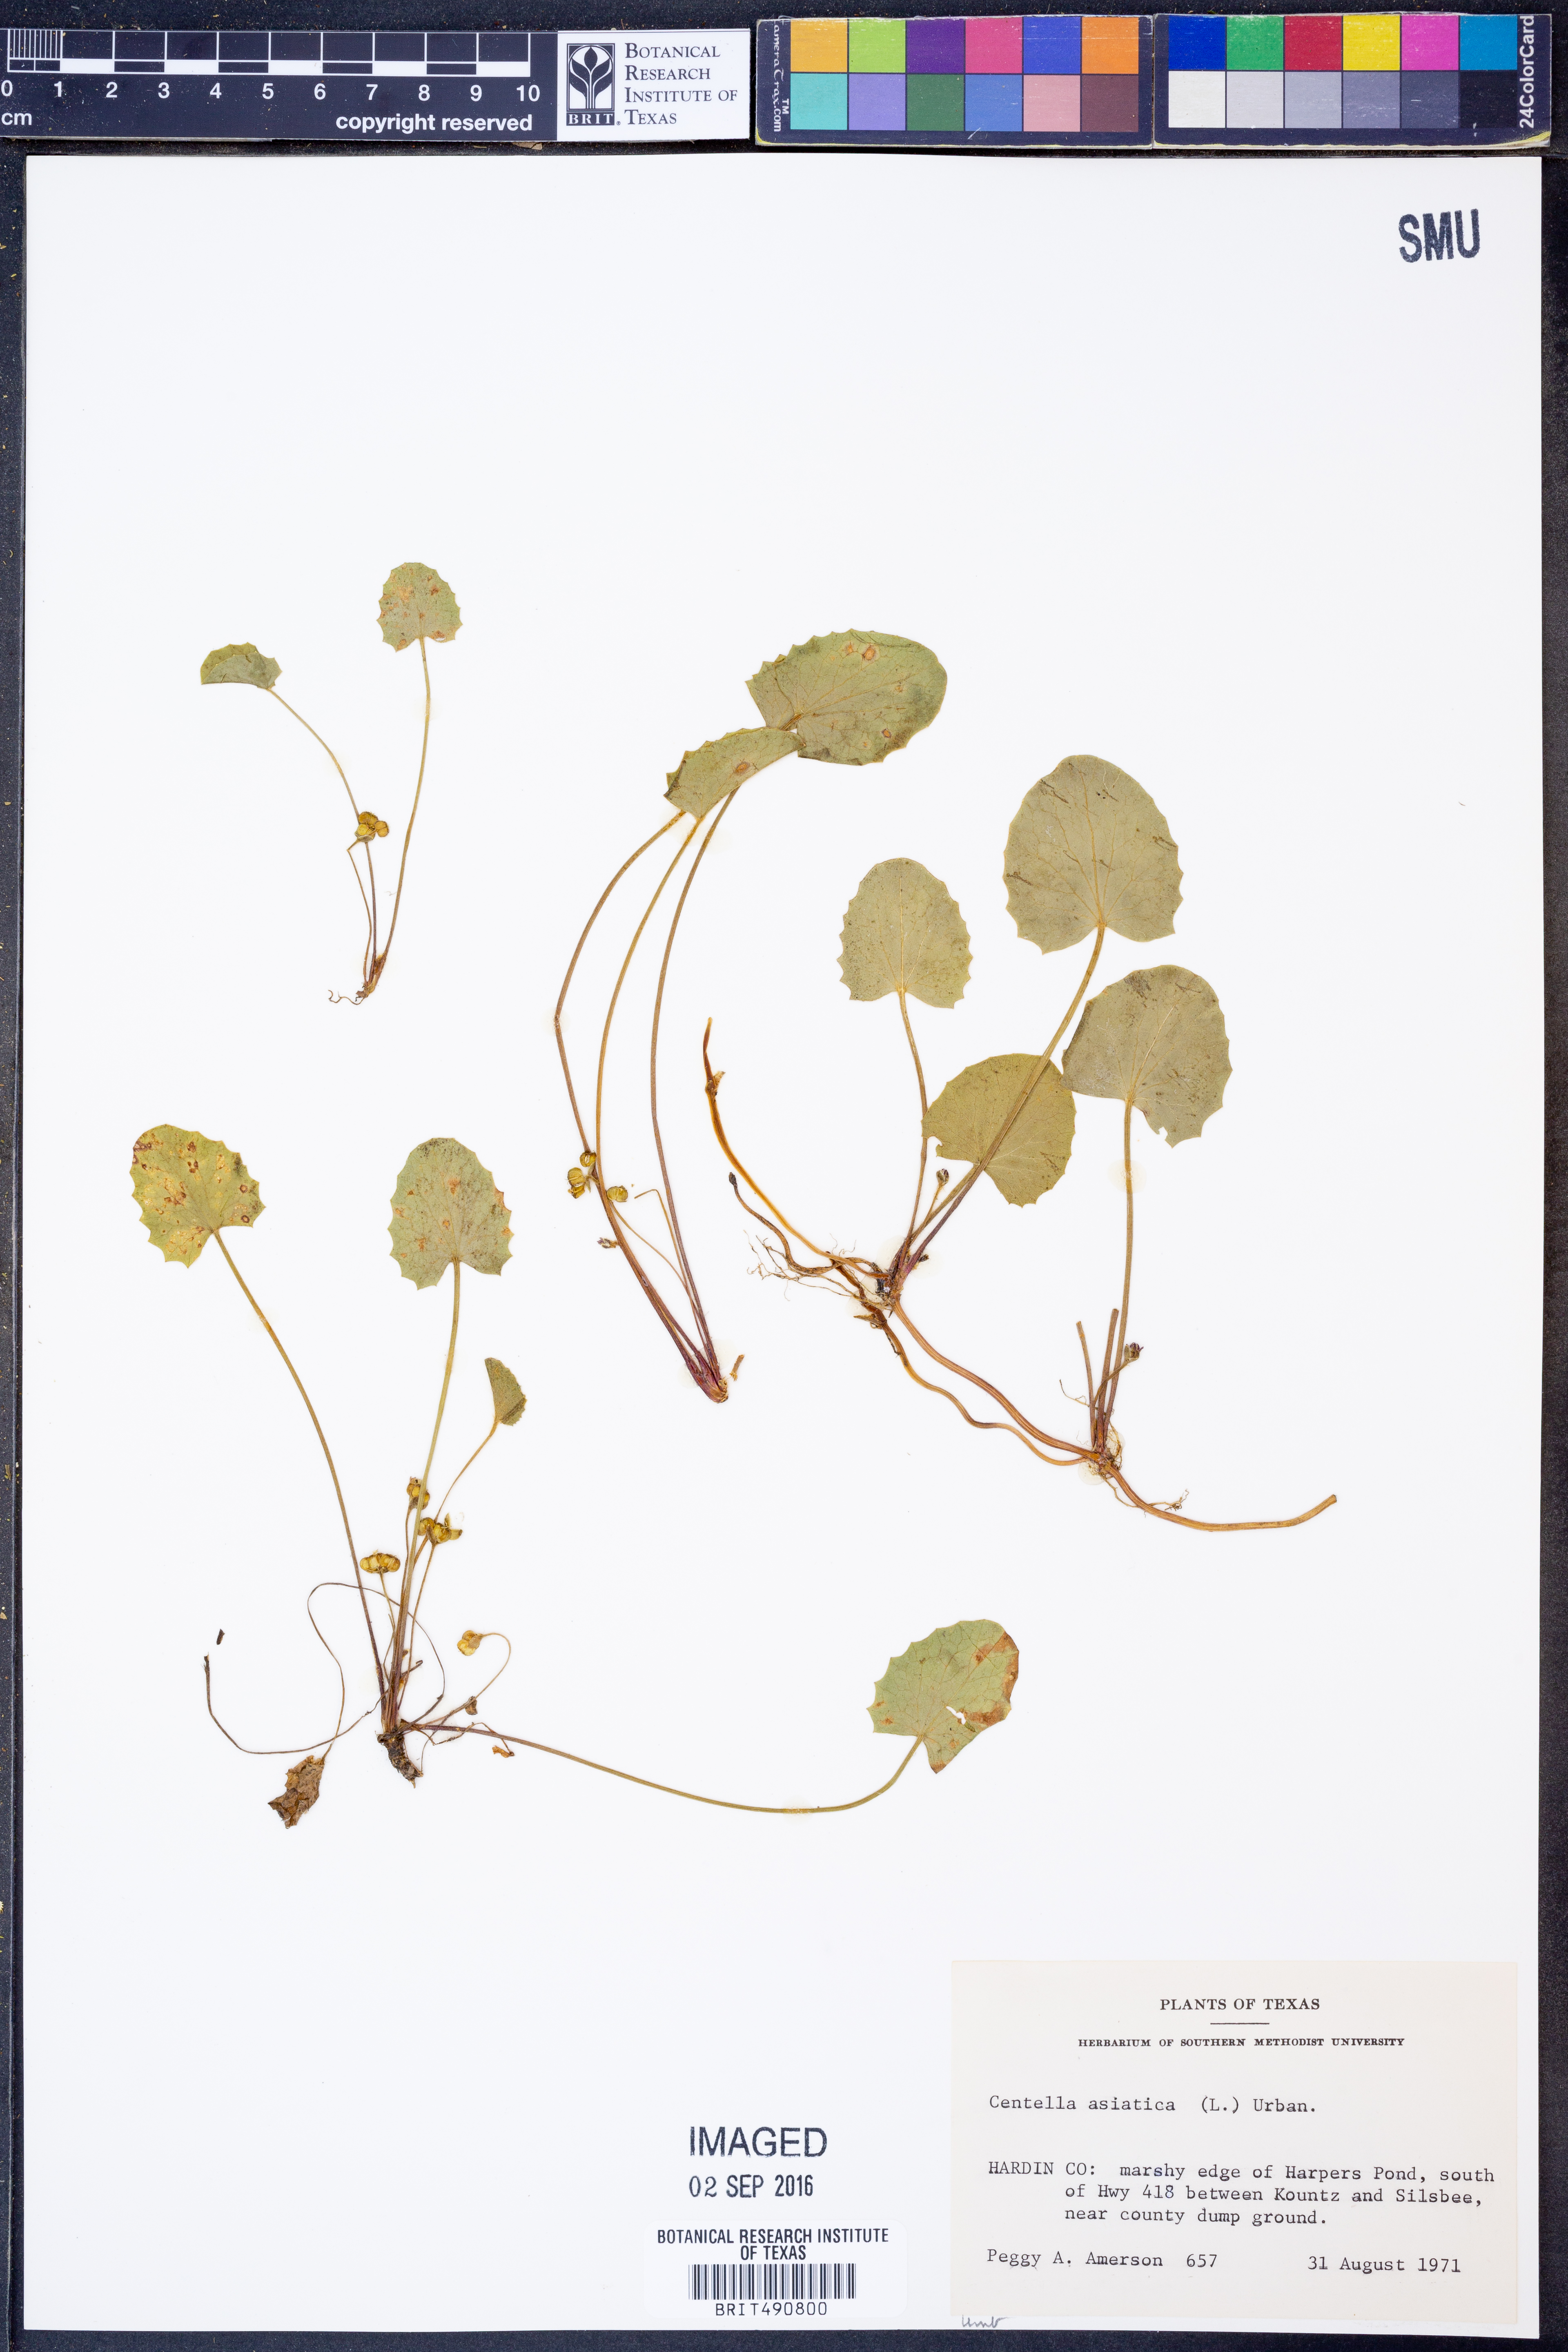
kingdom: Plantae
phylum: Tracheophyta
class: Magnoliopsida
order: Apiales
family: Apiaceae
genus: Centella
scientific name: Centella asiatica
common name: Spadeleaf
